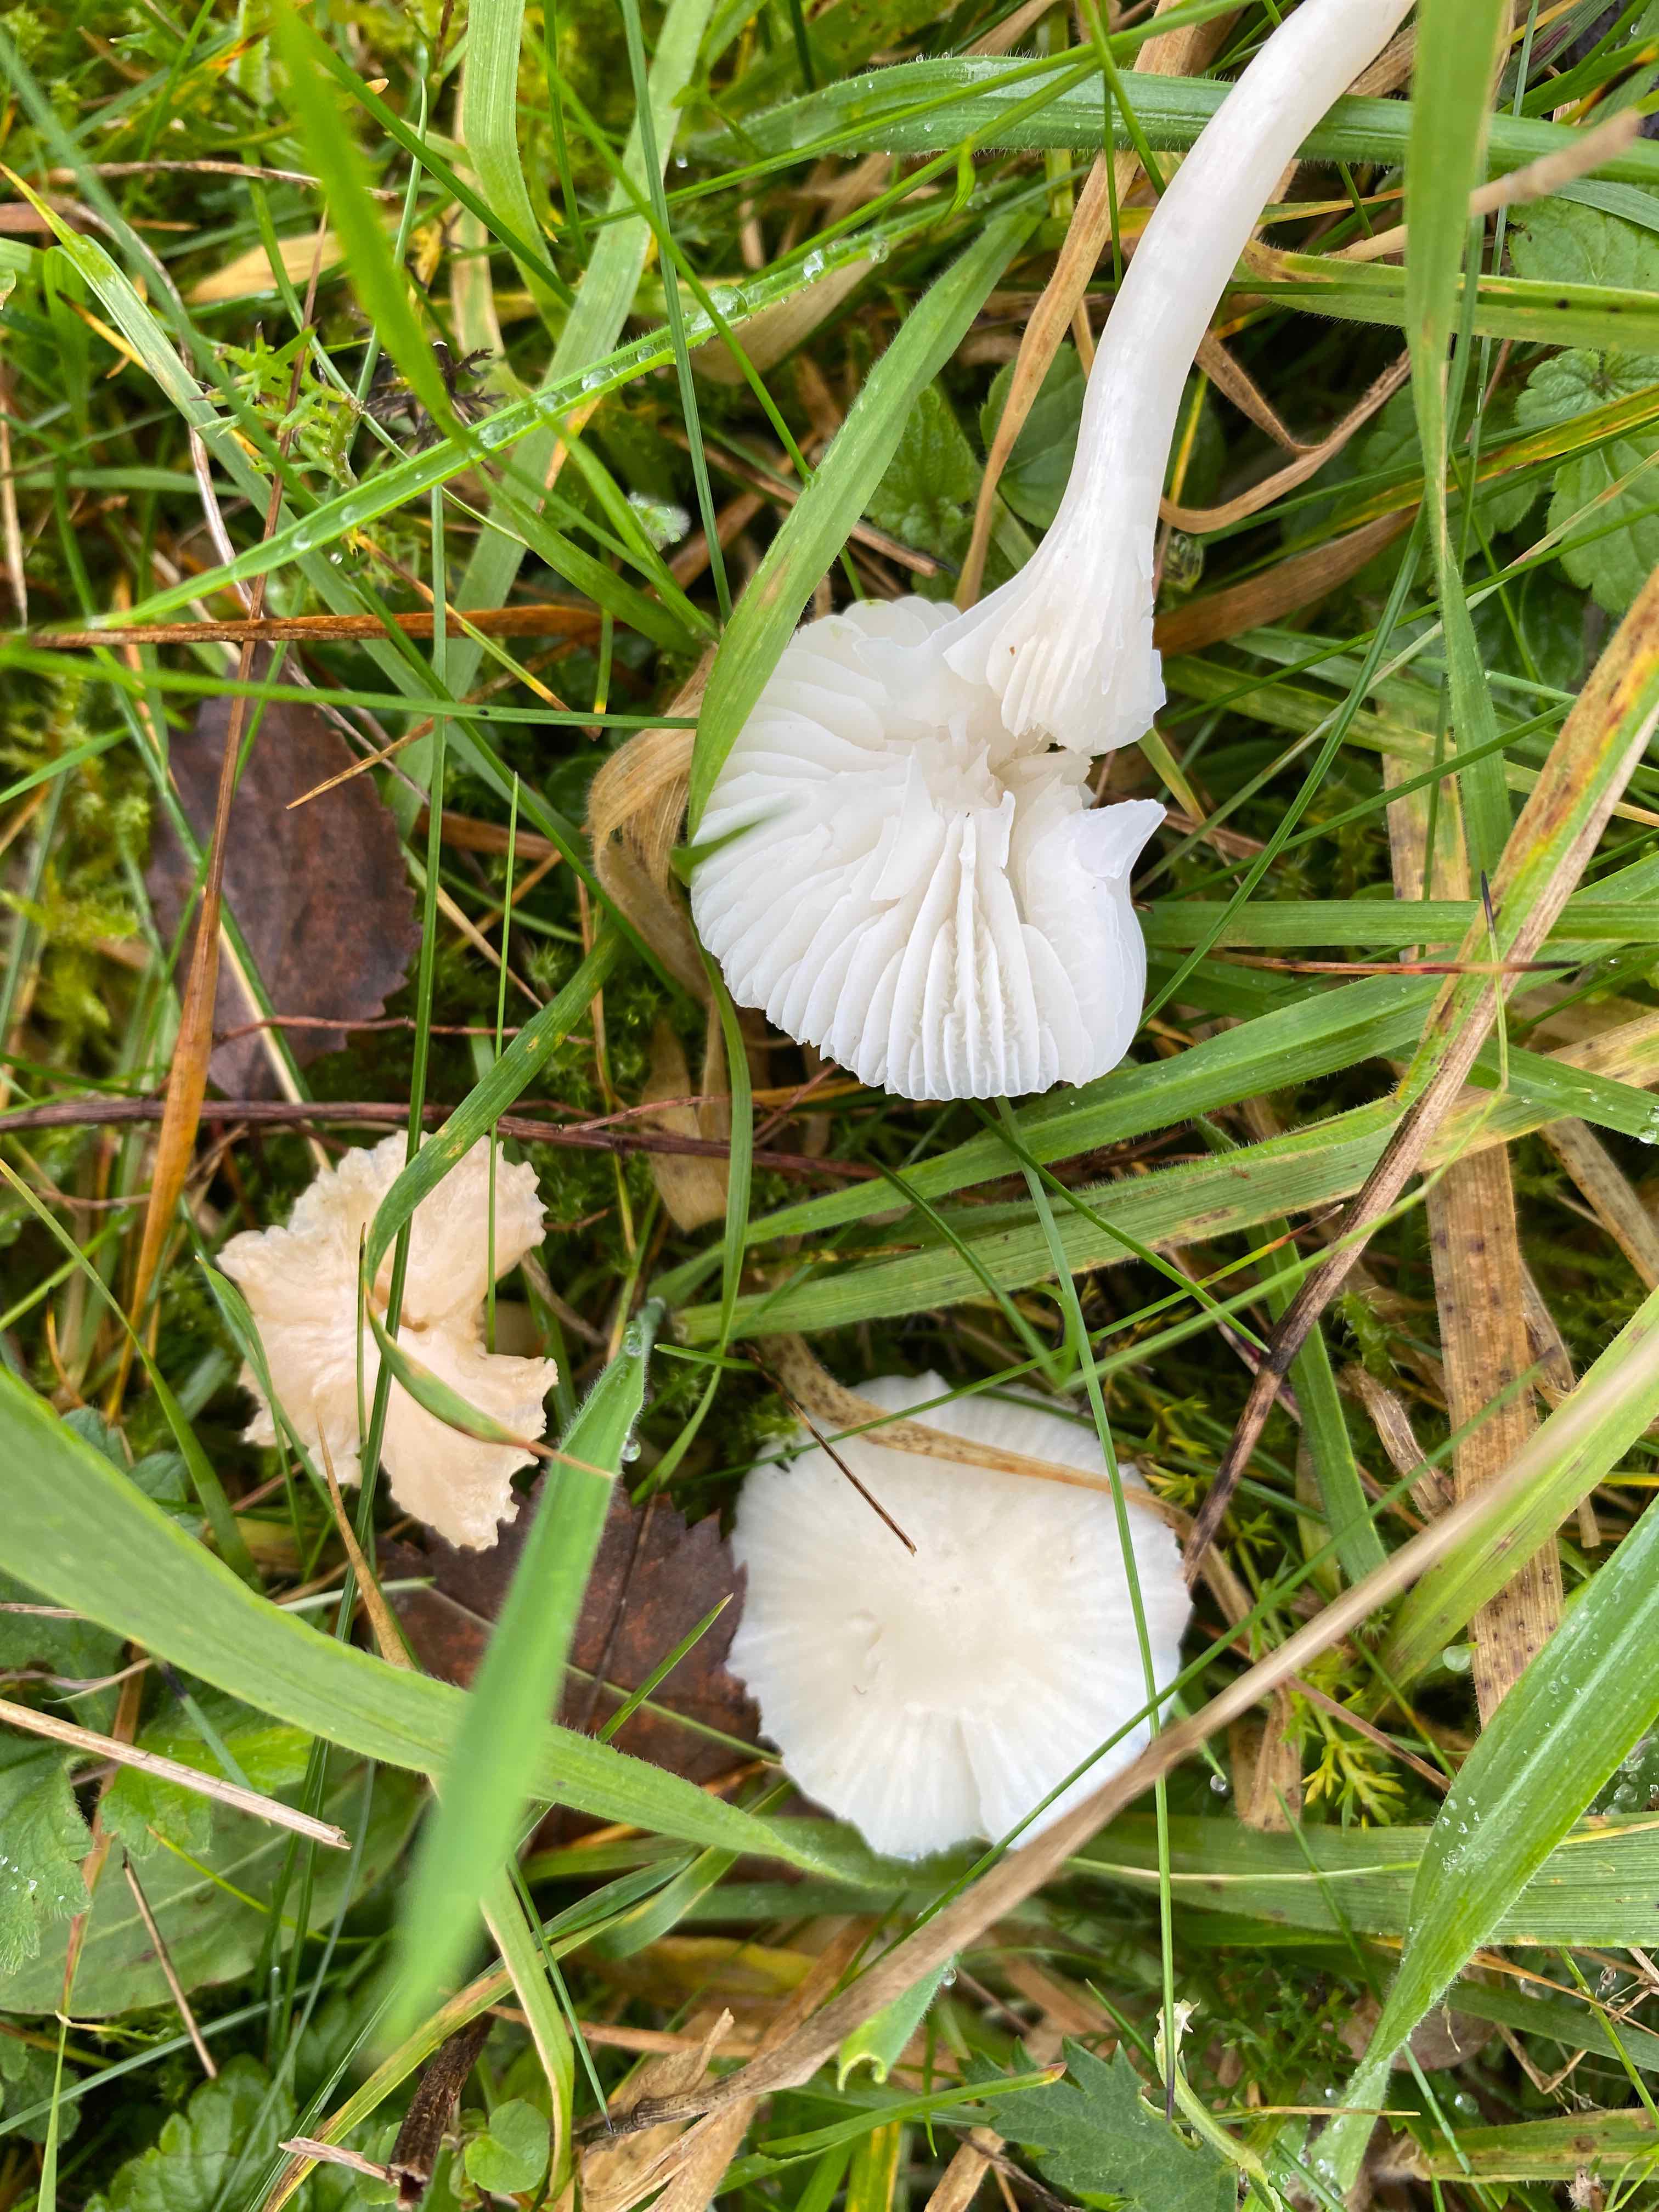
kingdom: Fungi
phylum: Basidiomycota
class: Agaricomycetes
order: Agaricales
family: Hygrophoraceae
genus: Cuphophyllus
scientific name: Cuphophyllus virgineus
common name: snehvid vokshat
